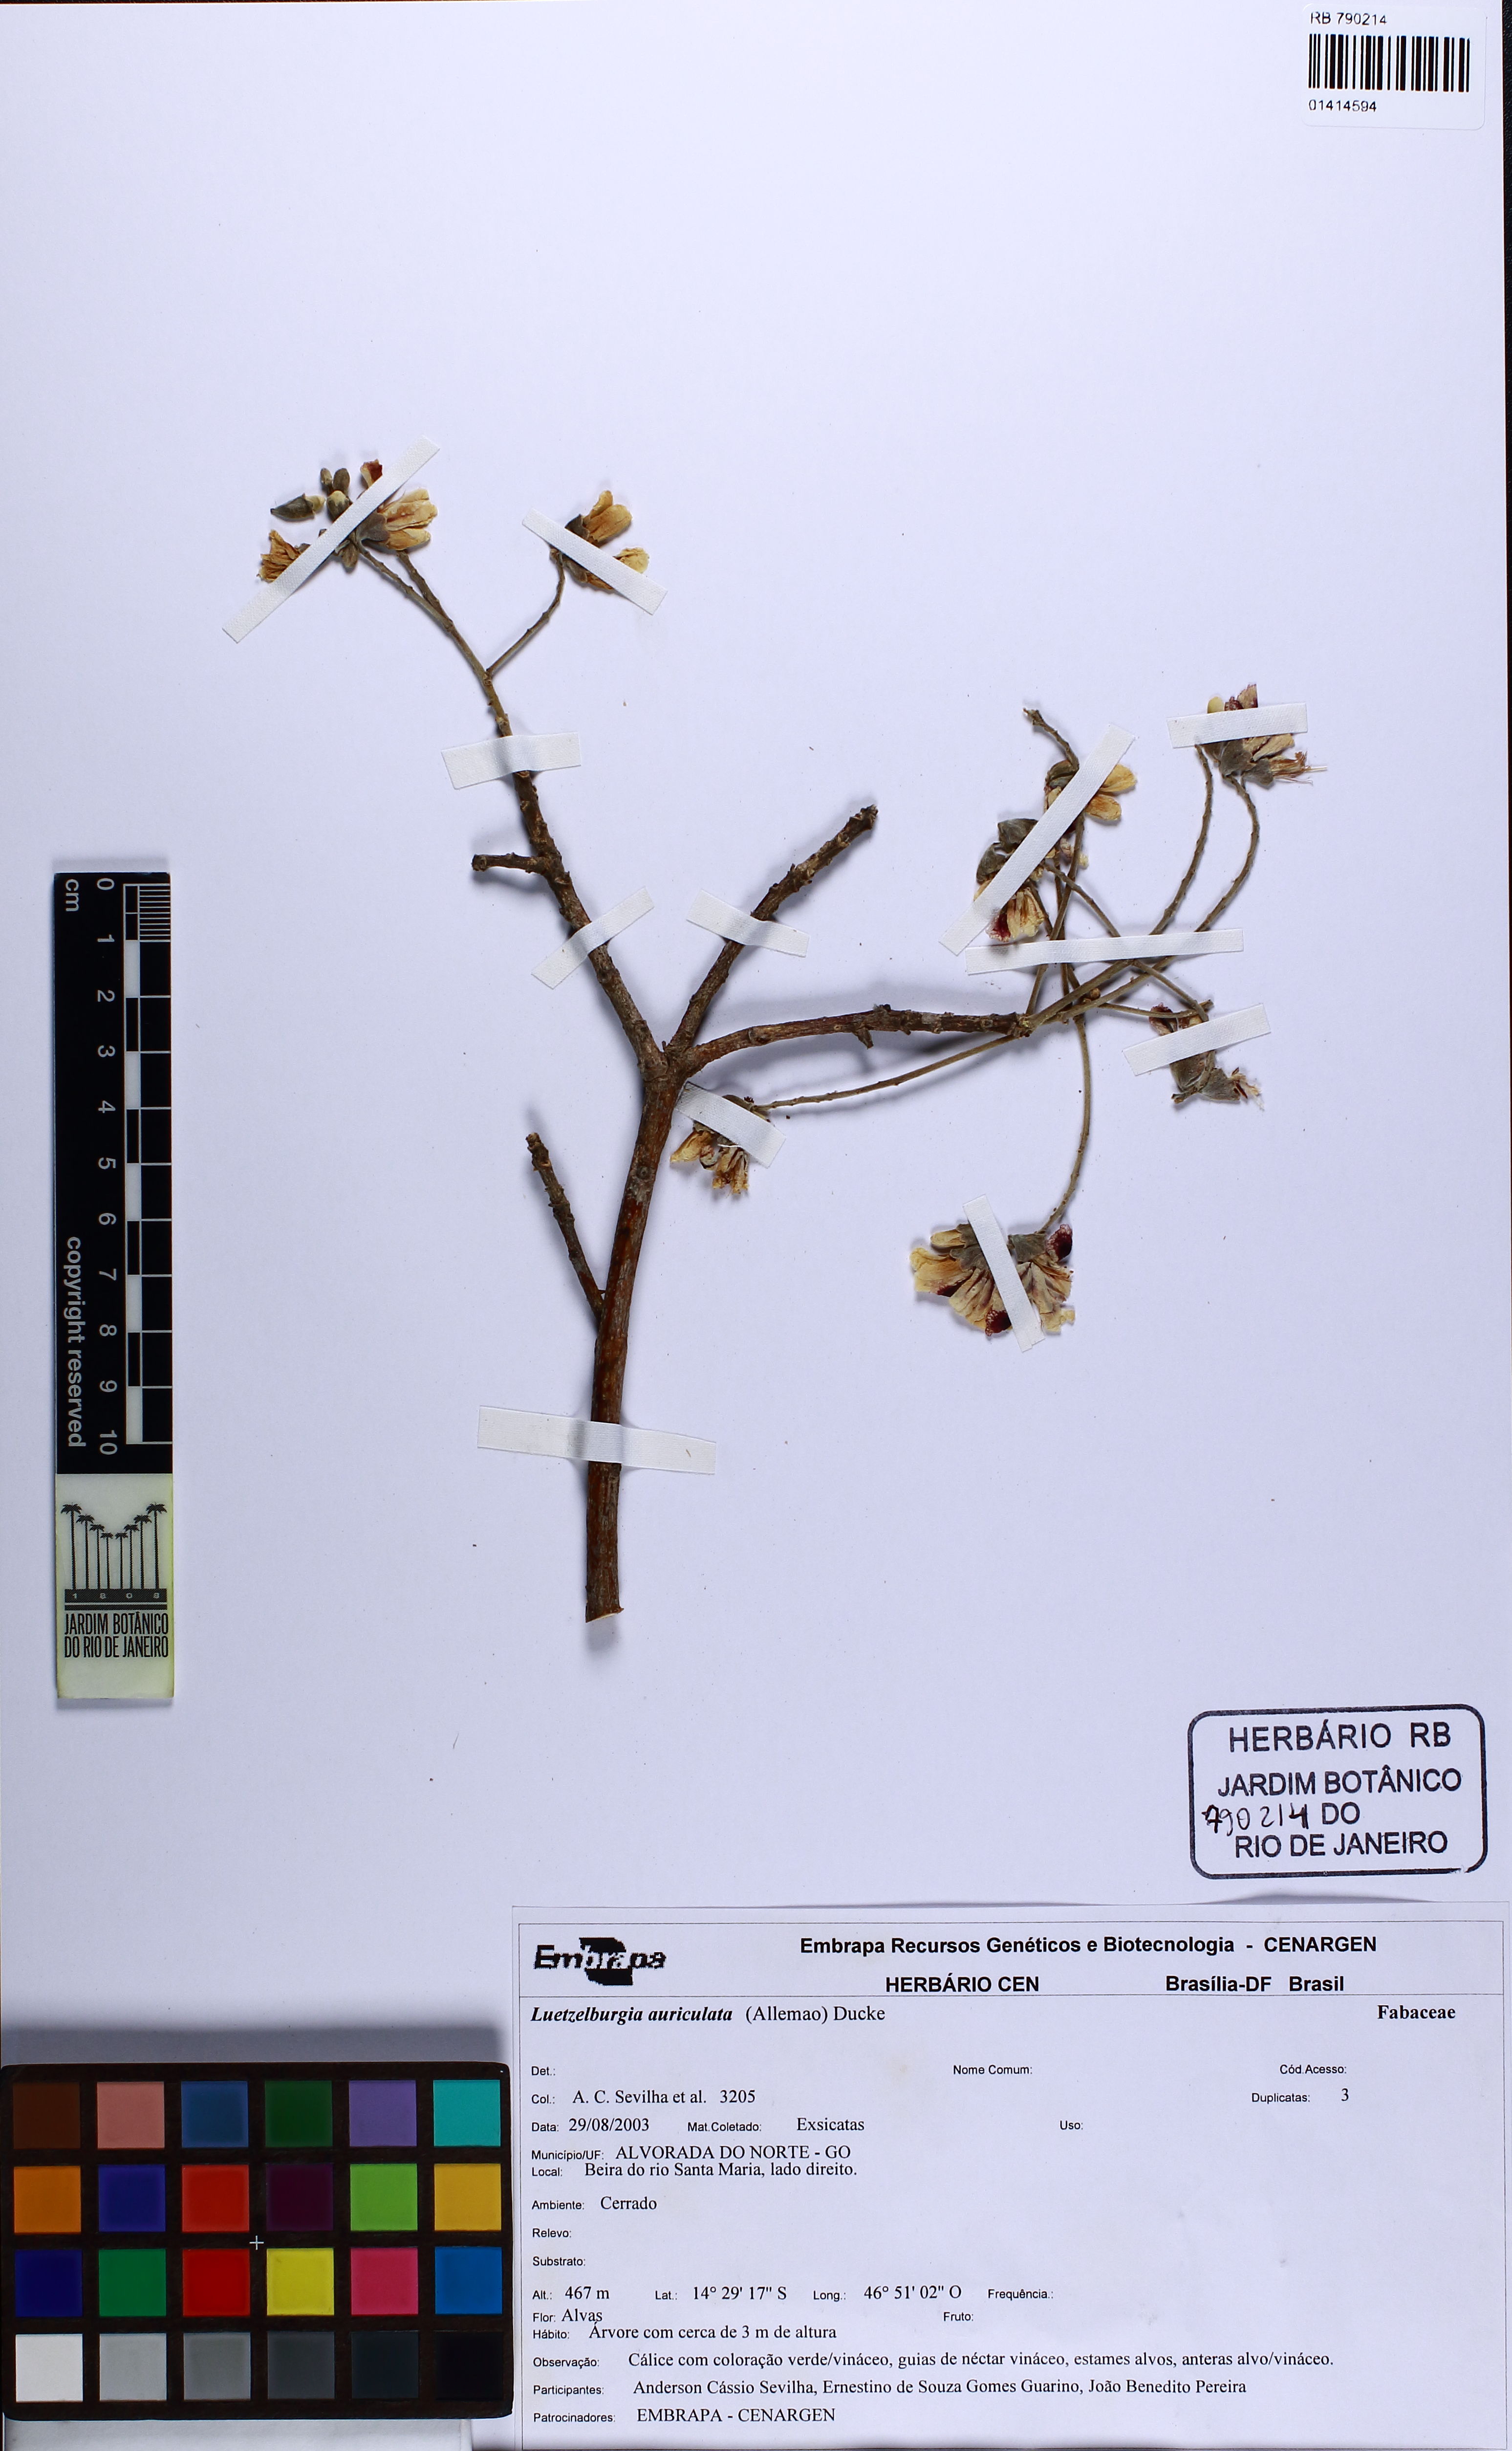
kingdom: Plantae
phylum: Tracheophyta
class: Magnoliopsida
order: Fabales
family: Fabaceae
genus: Luetzelburgia
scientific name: Luetzelburgia auriculata
